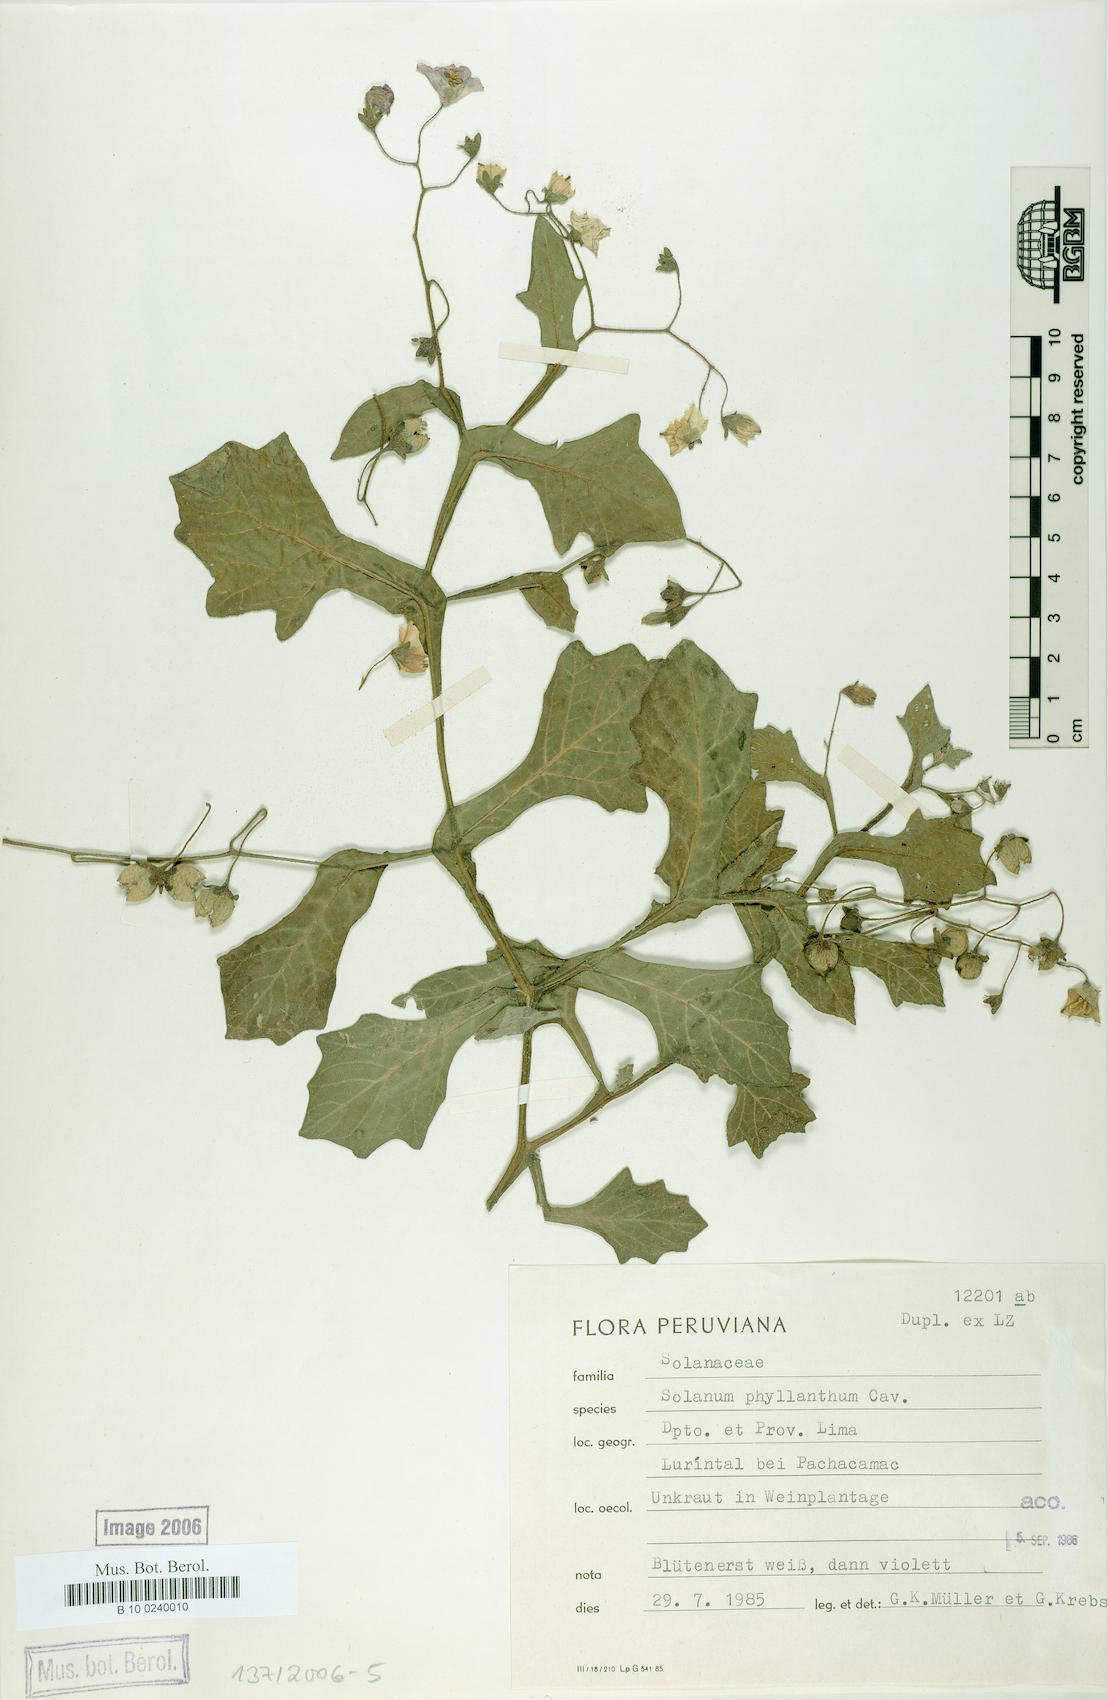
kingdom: Plantae
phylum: Tracheophyta
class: Magnoliopsida
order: Solanales
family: Solanaceae
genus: Solanum
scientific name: Solanum paposanum
